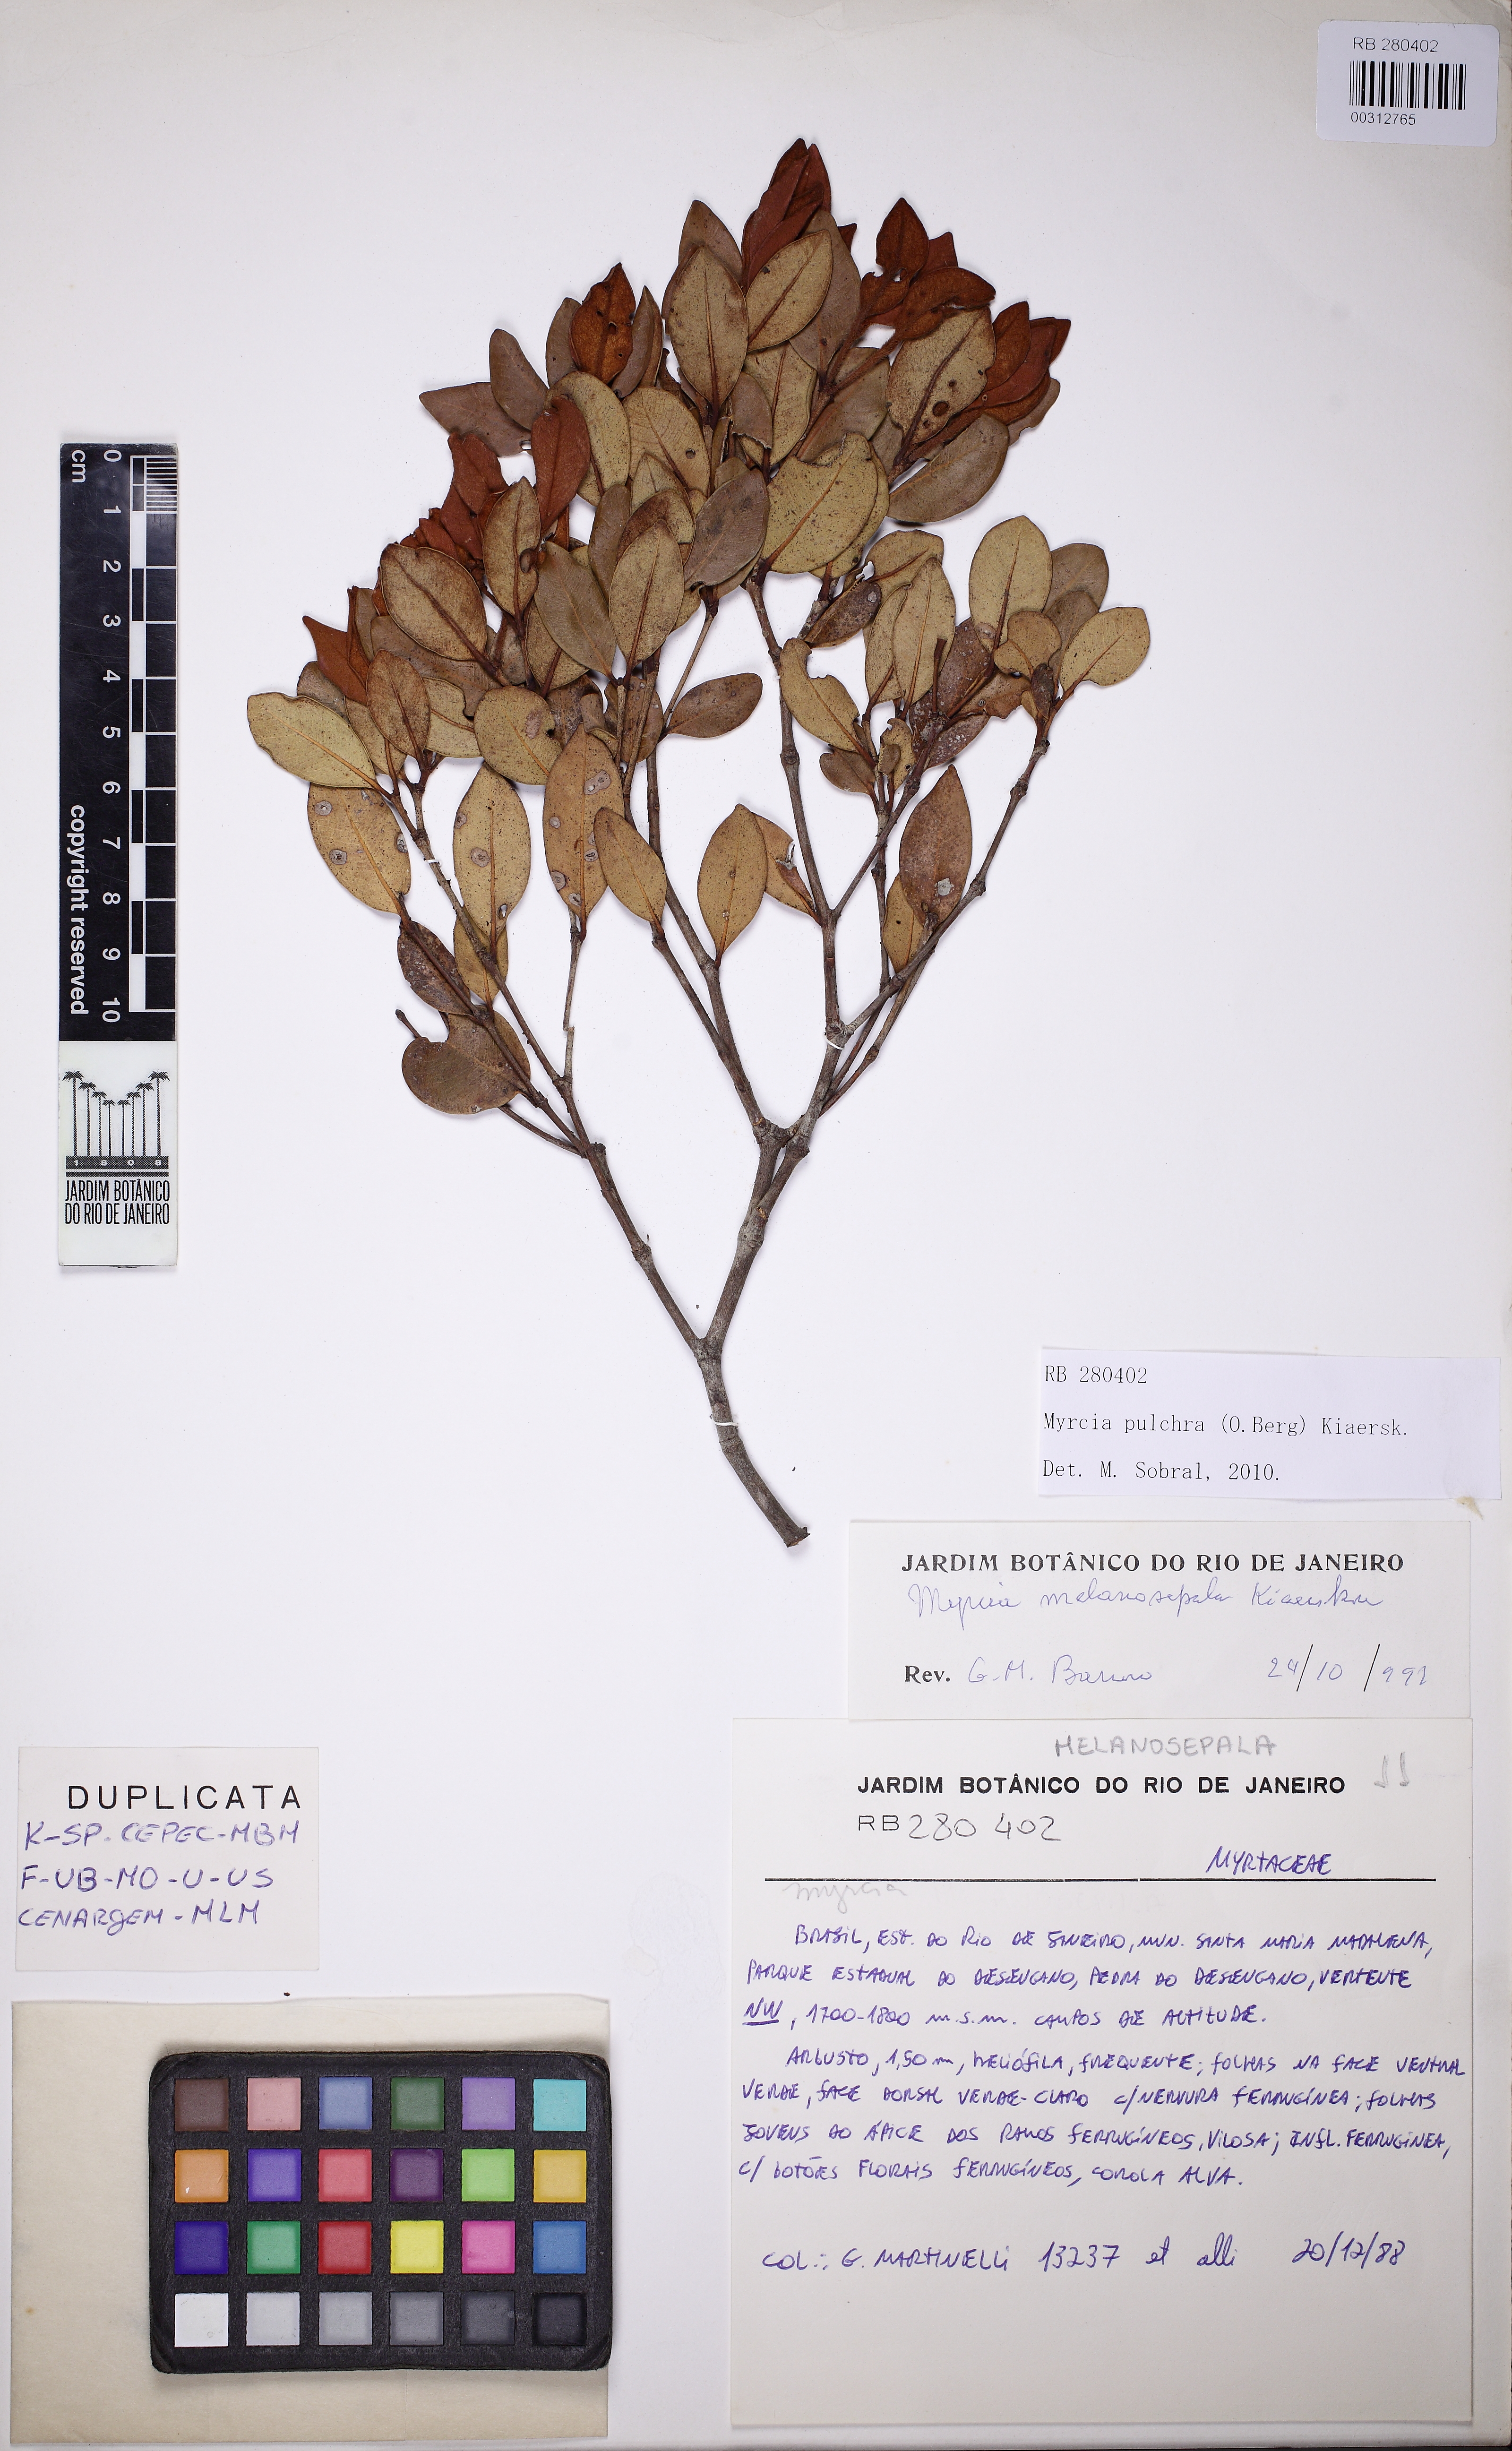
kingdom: Plantae
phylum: Tracheophyta
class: Magnoliopsida
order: Myrtales
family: Myrtaceae
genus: Myrcia
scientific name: Myrcia pulchra
